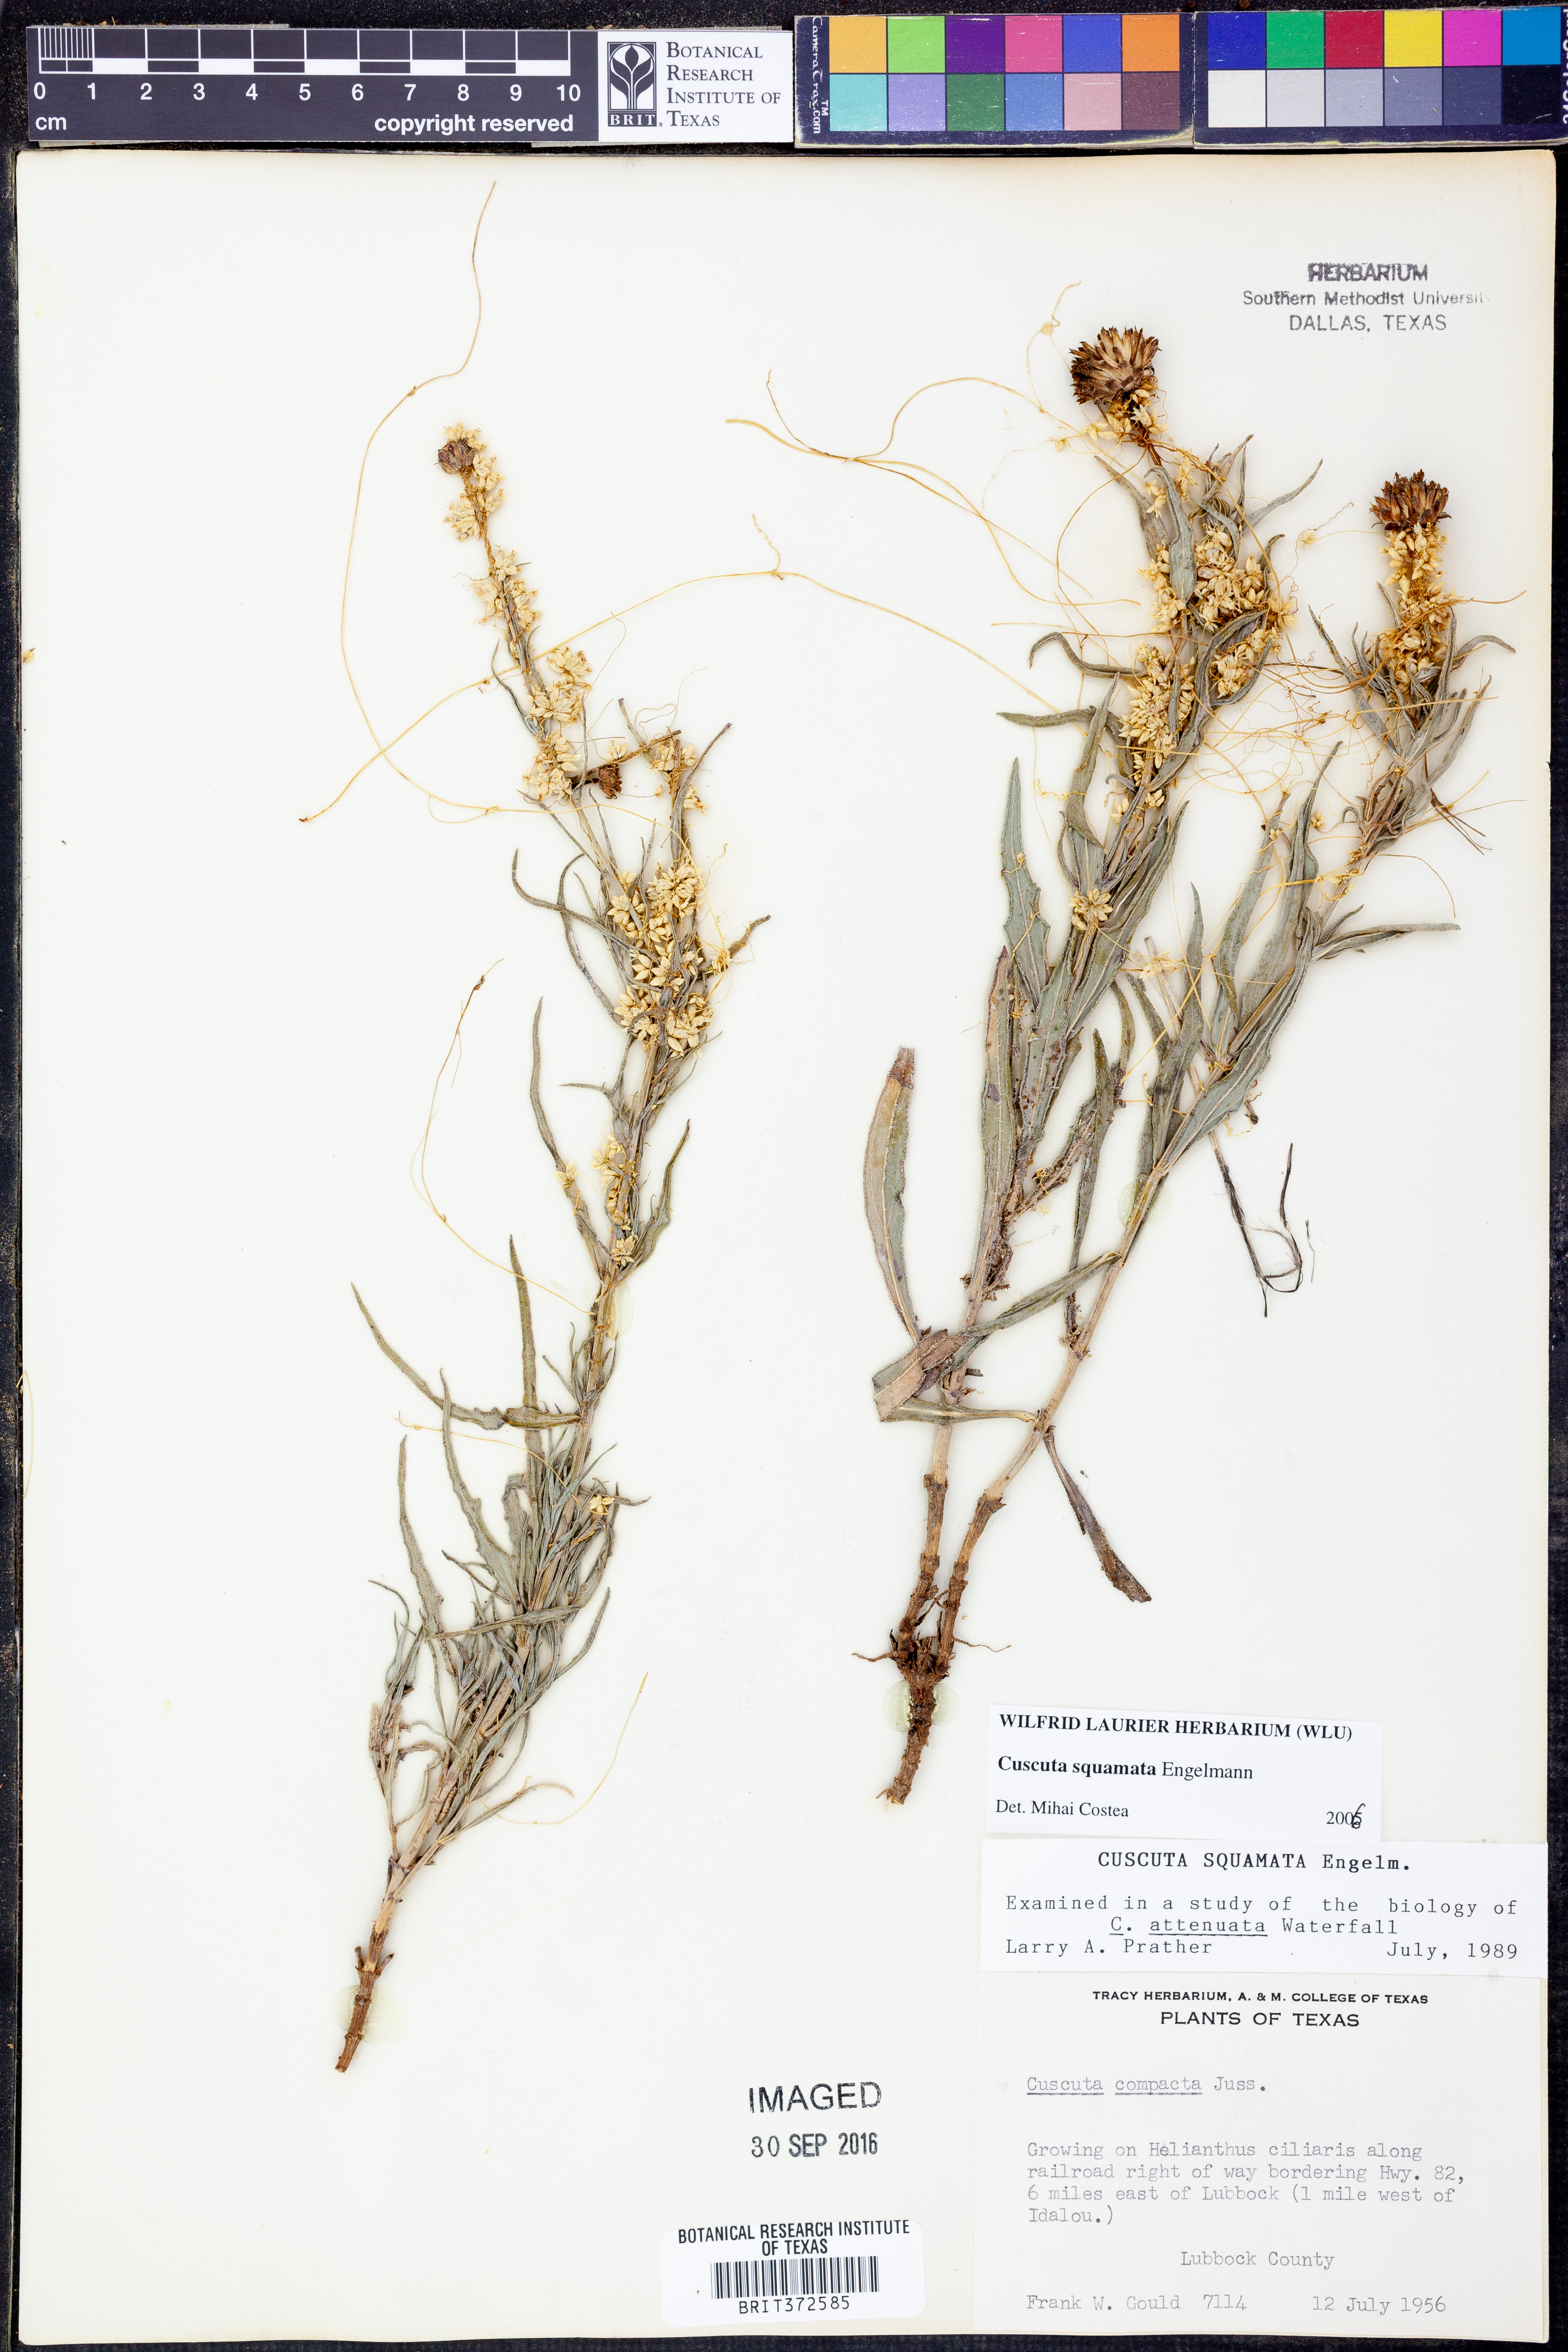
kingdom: Plantae
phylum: Tracheophyta
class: Magnoliopsida
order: Solanales
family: Convolvulaceae
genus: Cuscuta
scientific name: Cuscuta squamata
